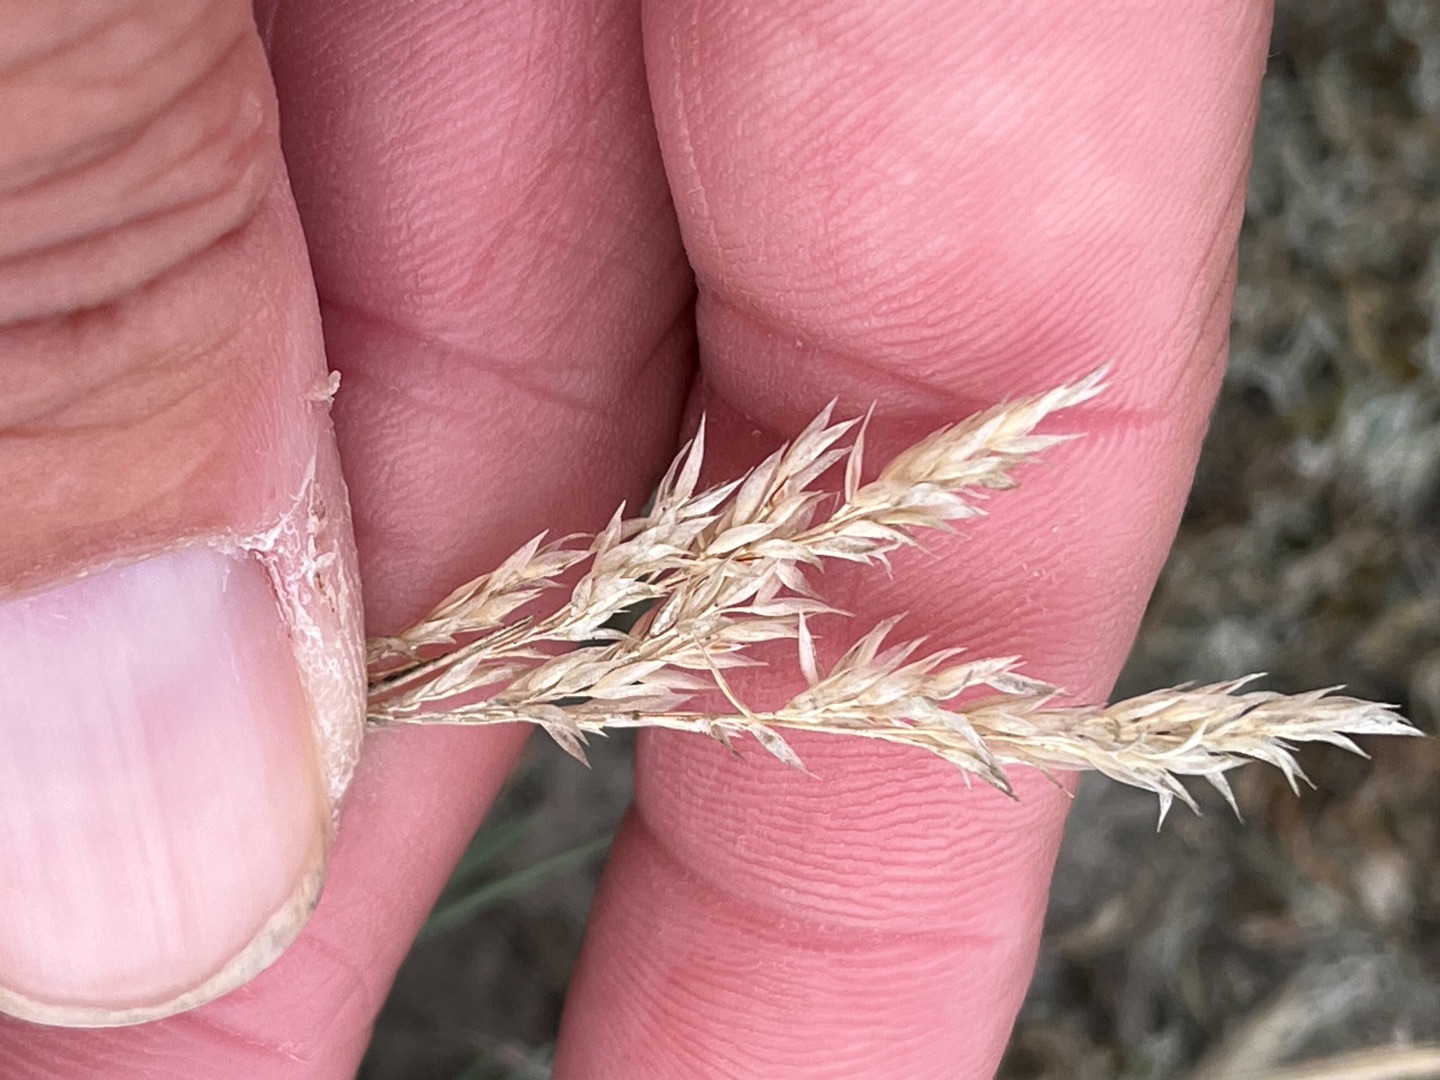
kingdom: Plantae
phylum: Tracheophyta
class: Liliopsida
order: Poales
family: Poaceae
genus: Corynephorus
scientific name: Corynephorus canescens
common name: Sandskæg
